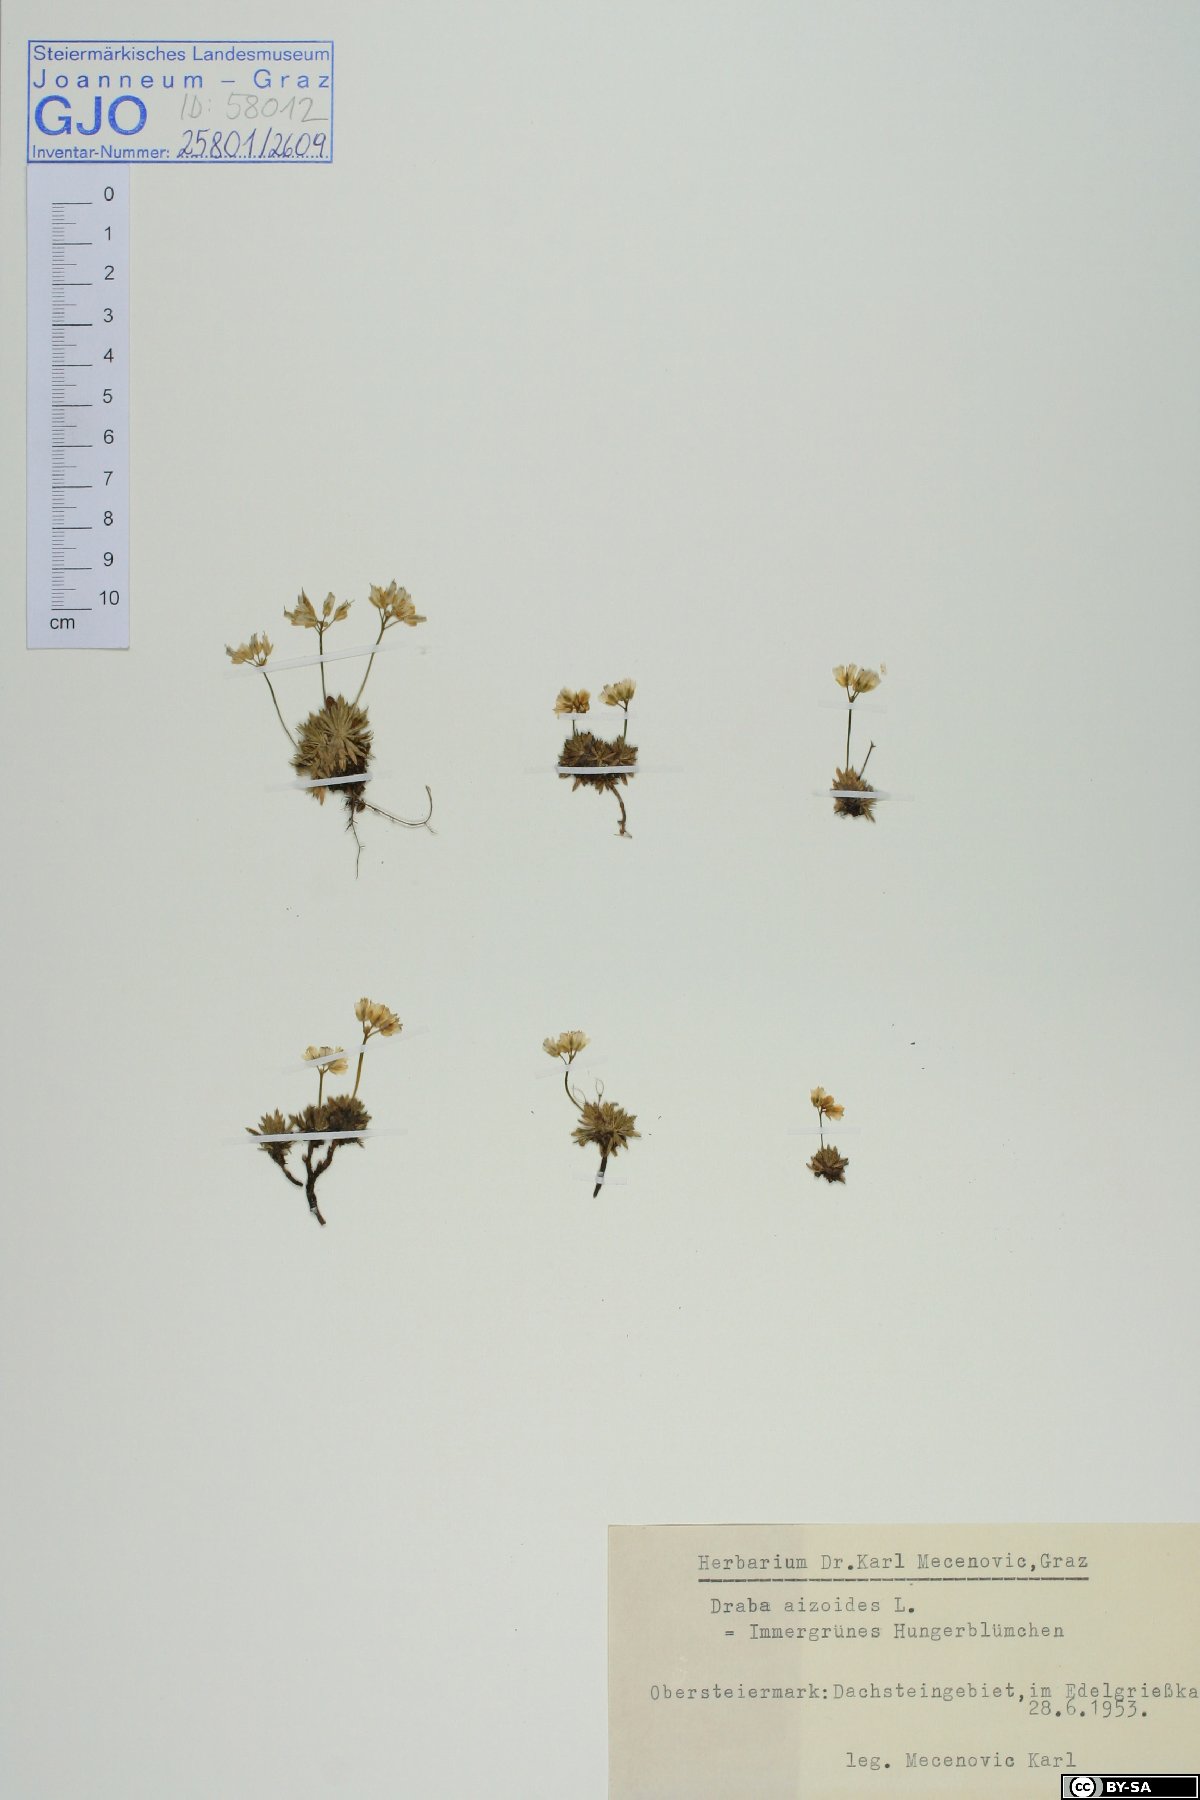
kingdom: Plantae
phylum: Tracheophyta
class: Magnoliopsida
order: Brassicales
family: Brassicaceae
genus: Draba
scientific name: Draba aizoides
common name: Yellow whitlowgrass
